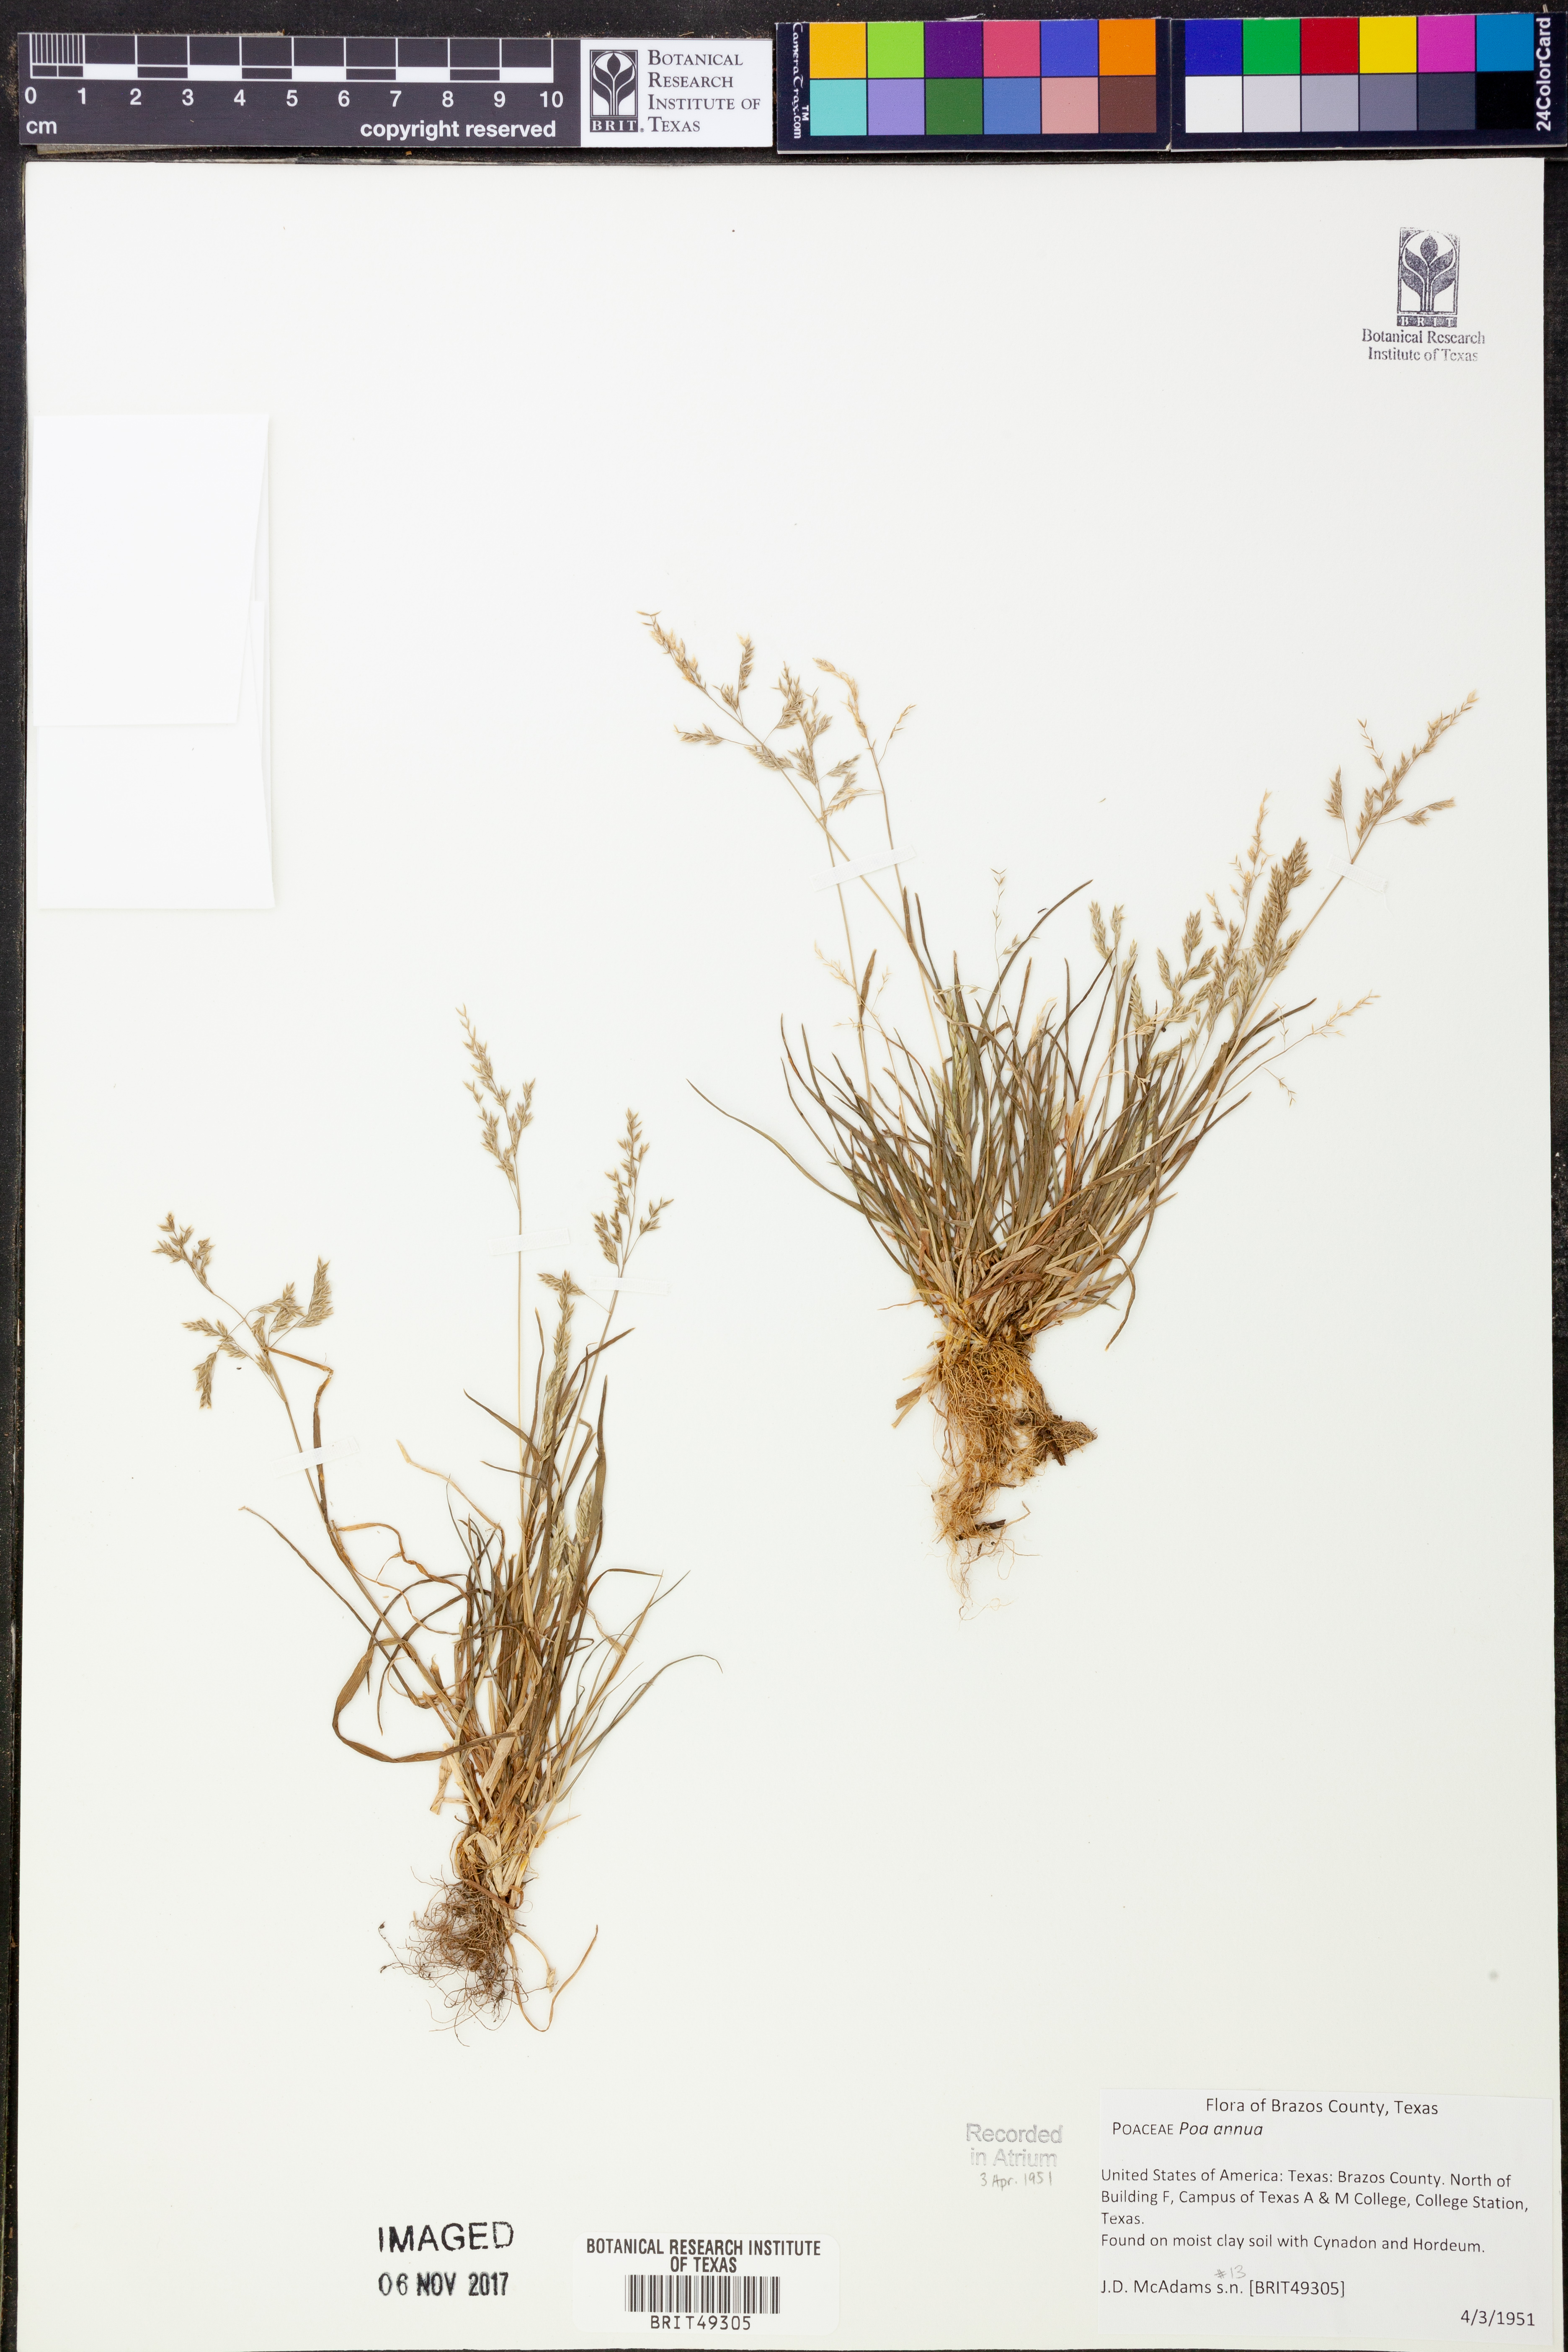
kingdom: Plantae
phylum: Tracheophyta
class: Liliopsida
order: Poales
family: Poaceae
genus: Poa
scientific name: Poa annua
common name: Annual bluegrass
